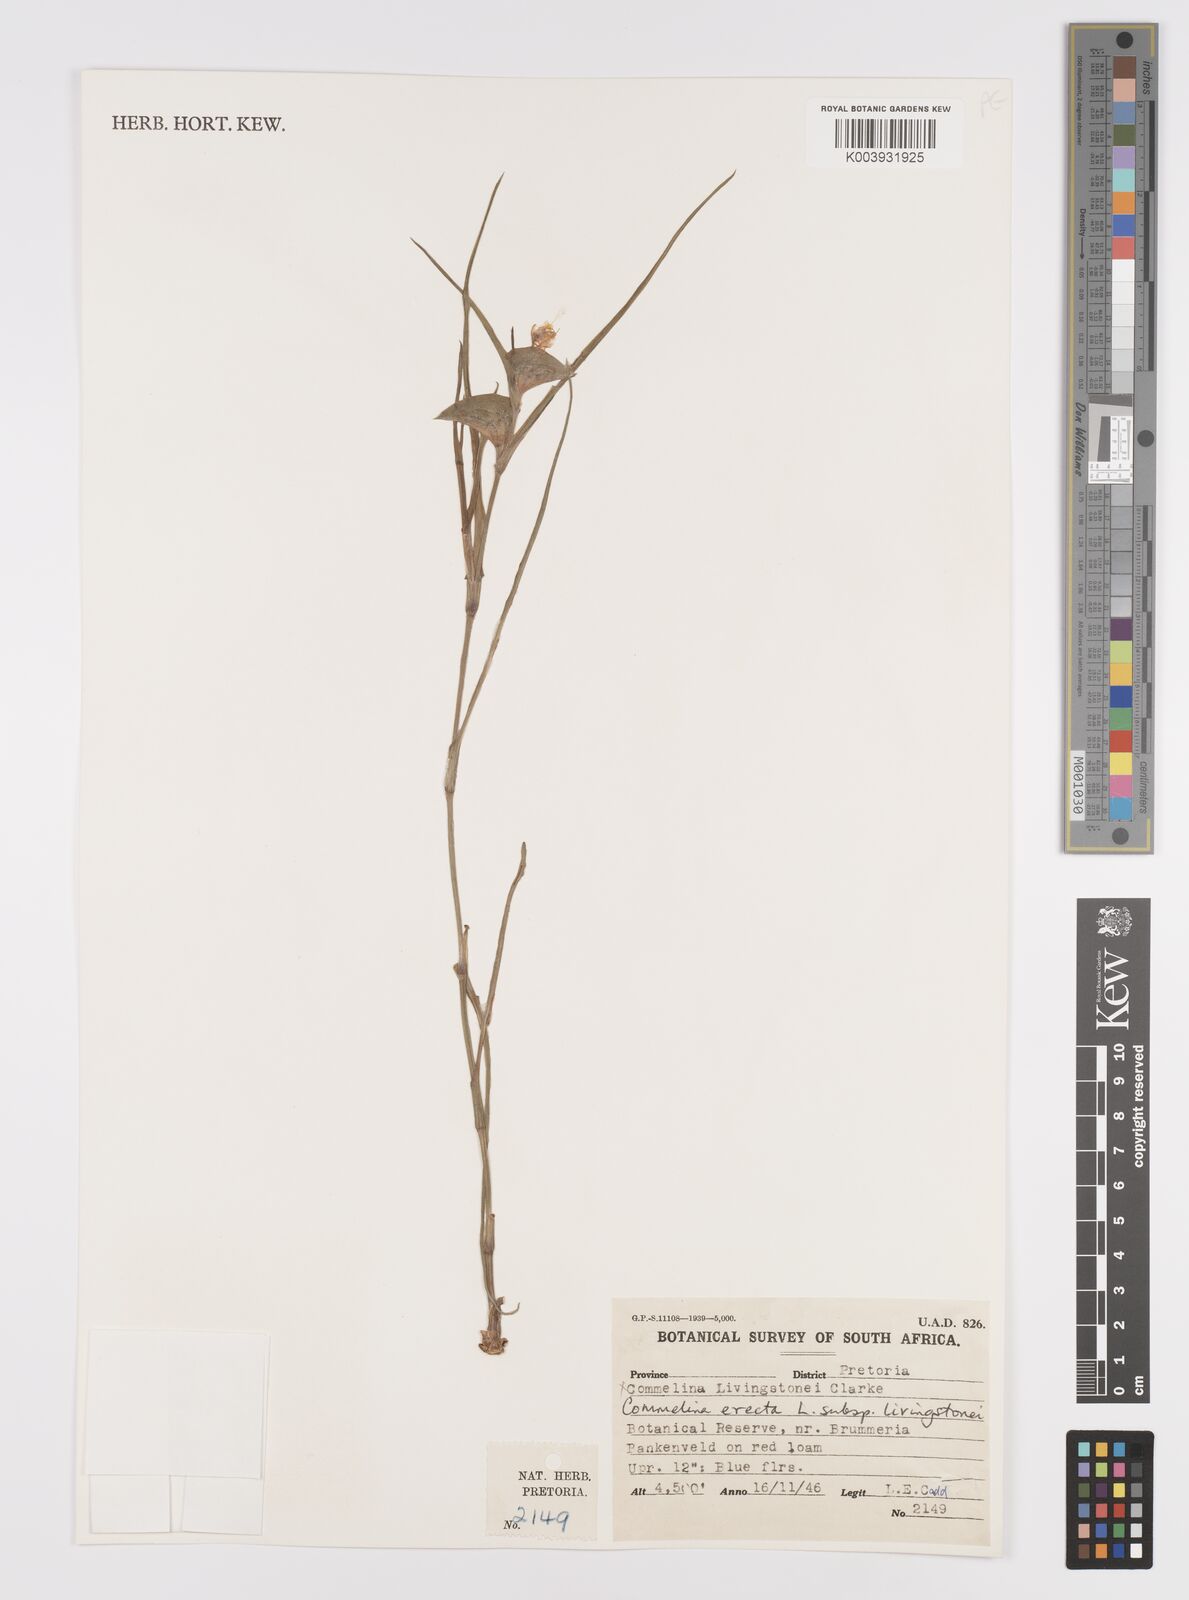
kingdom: Plantae
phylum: Tracheophyta
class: Liliopsida
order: Commelinales
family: Commelinaceae
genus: Commelina
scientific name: Commelina erecta
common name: Blousel blommetjie
